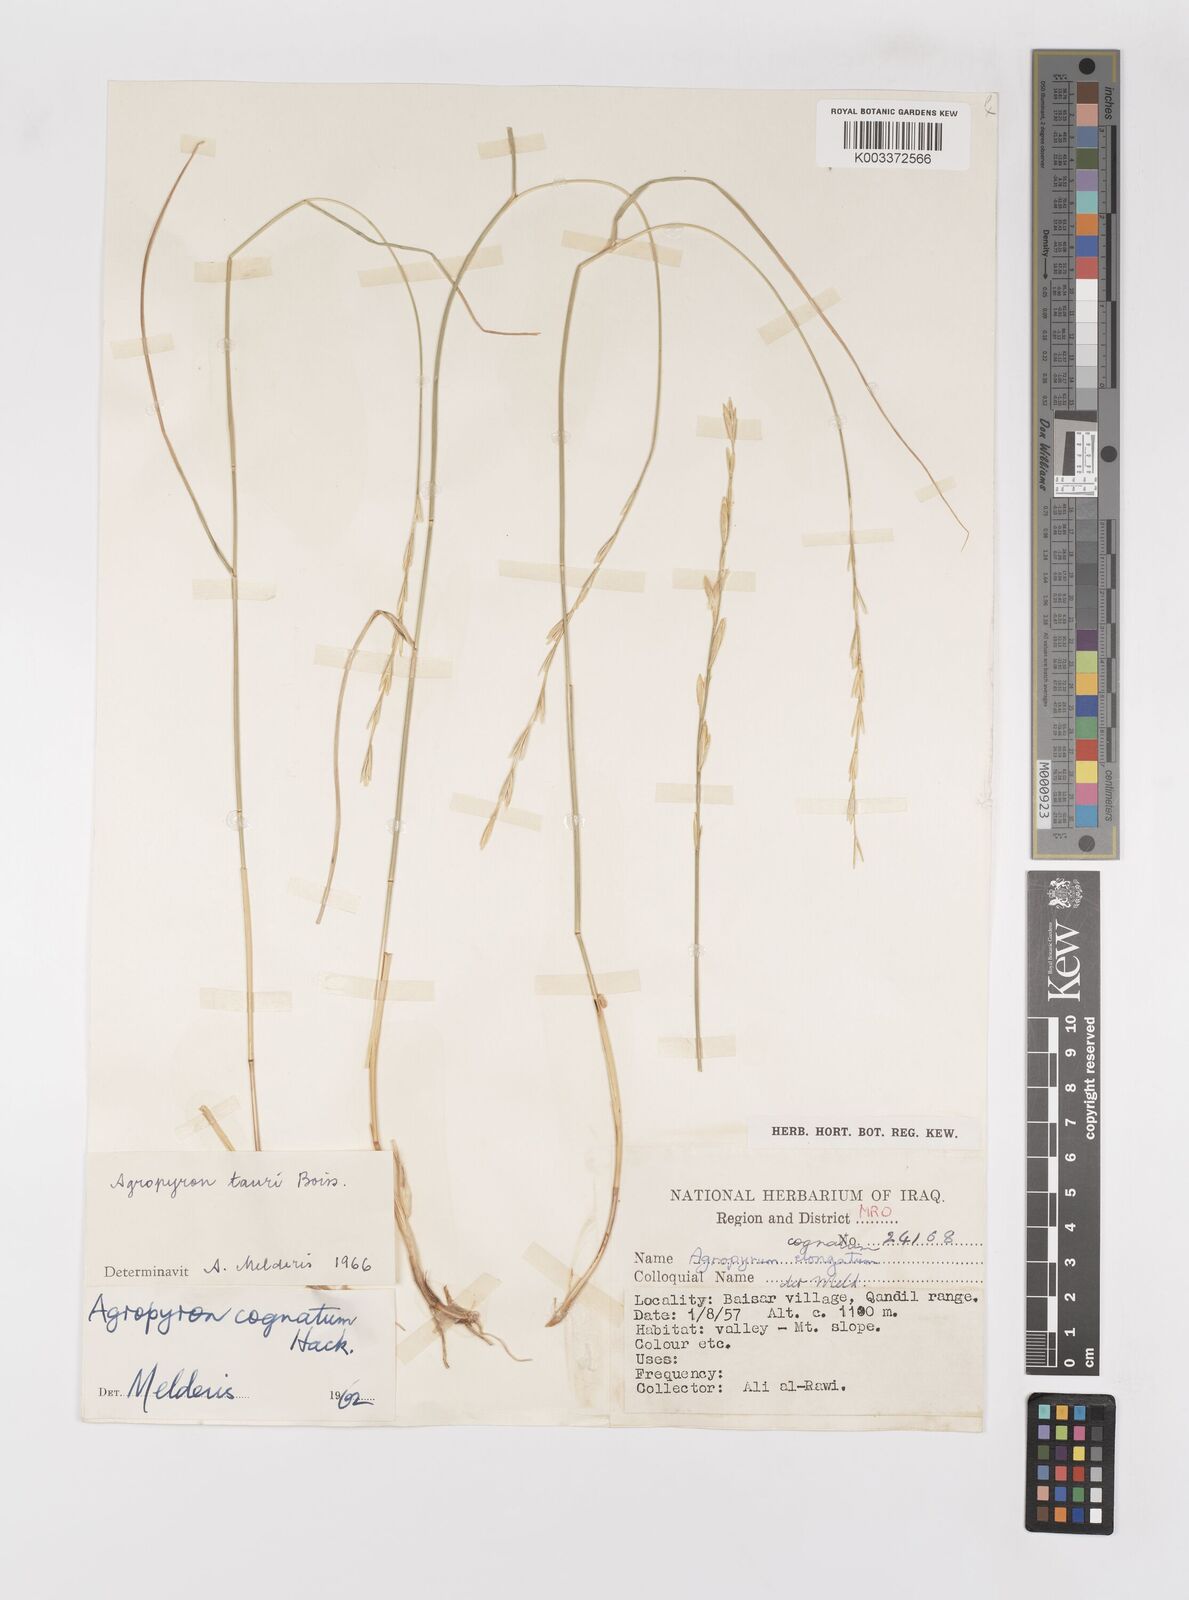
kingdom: Plantae
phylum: Tracheophyta
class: Liliopsida
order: Poales
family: Poaceae
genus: Pseudoroegneria
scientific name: Pseudoroegneria tauri
